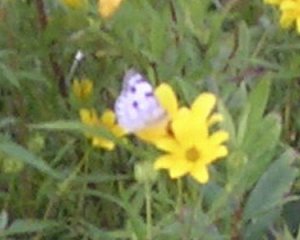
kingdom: Animalia
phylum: Arthropoda
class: Insecta
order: Lepidoptera
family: Pieridae
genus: Pontia
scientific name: Pontia protodice
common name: Checkered White
